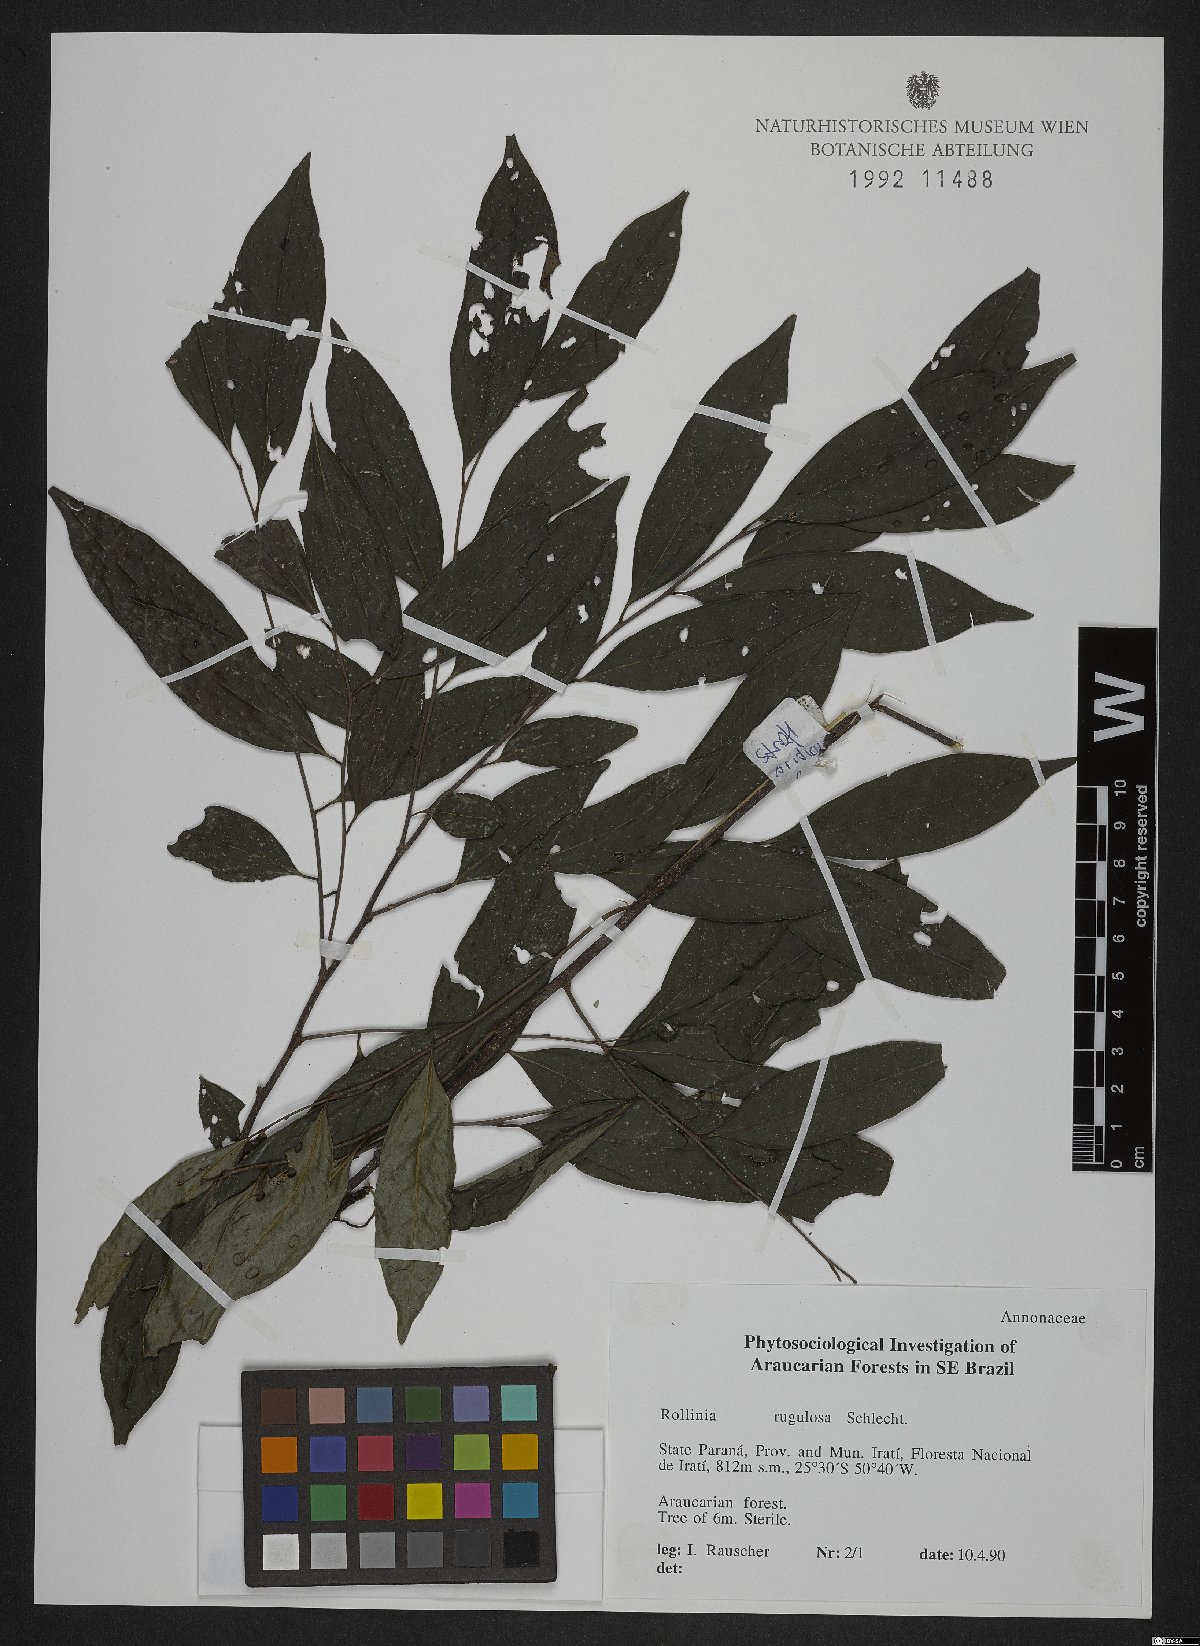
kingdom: Plantae
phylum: Tracheophyta
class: Magnoliopsida
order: Magnoliales
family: Annonaceae
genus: Annona
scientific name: Annona rugulosa
